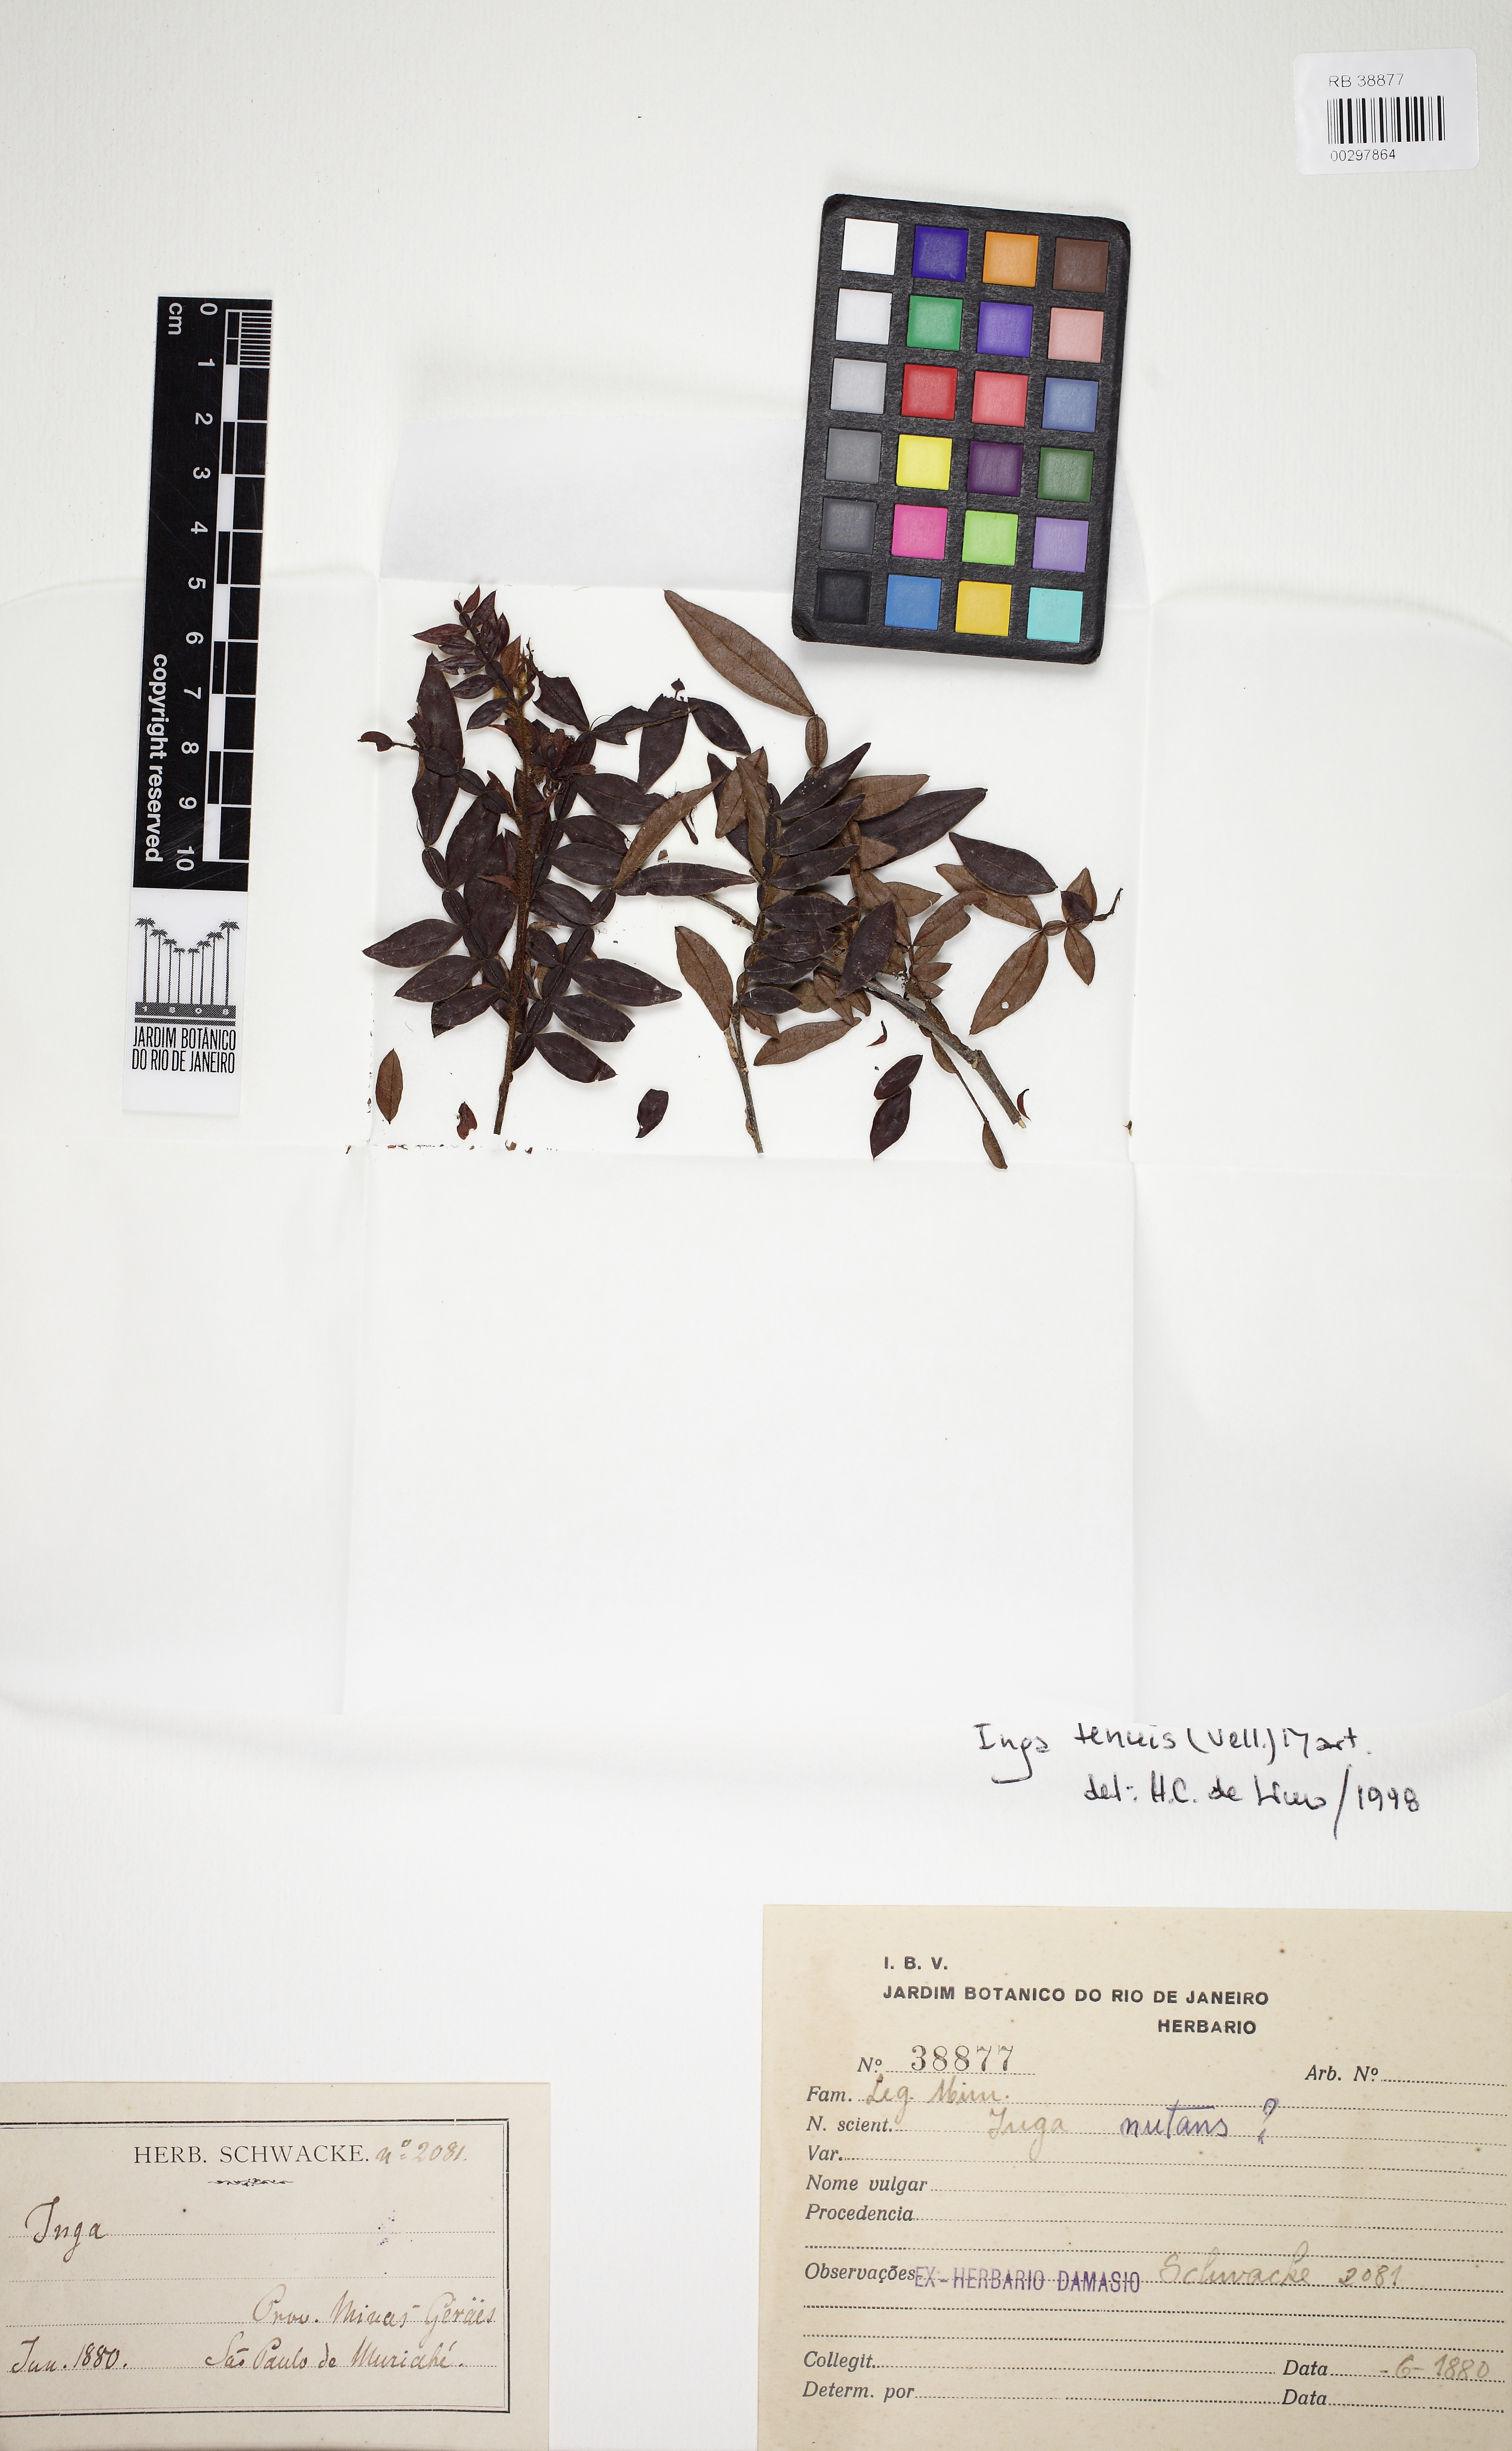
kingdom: Plantae
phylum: Tracheophyta
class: Magnoliopsida
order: Fabales
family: Fabaceae
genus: Inga
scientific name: Inga tenuis
